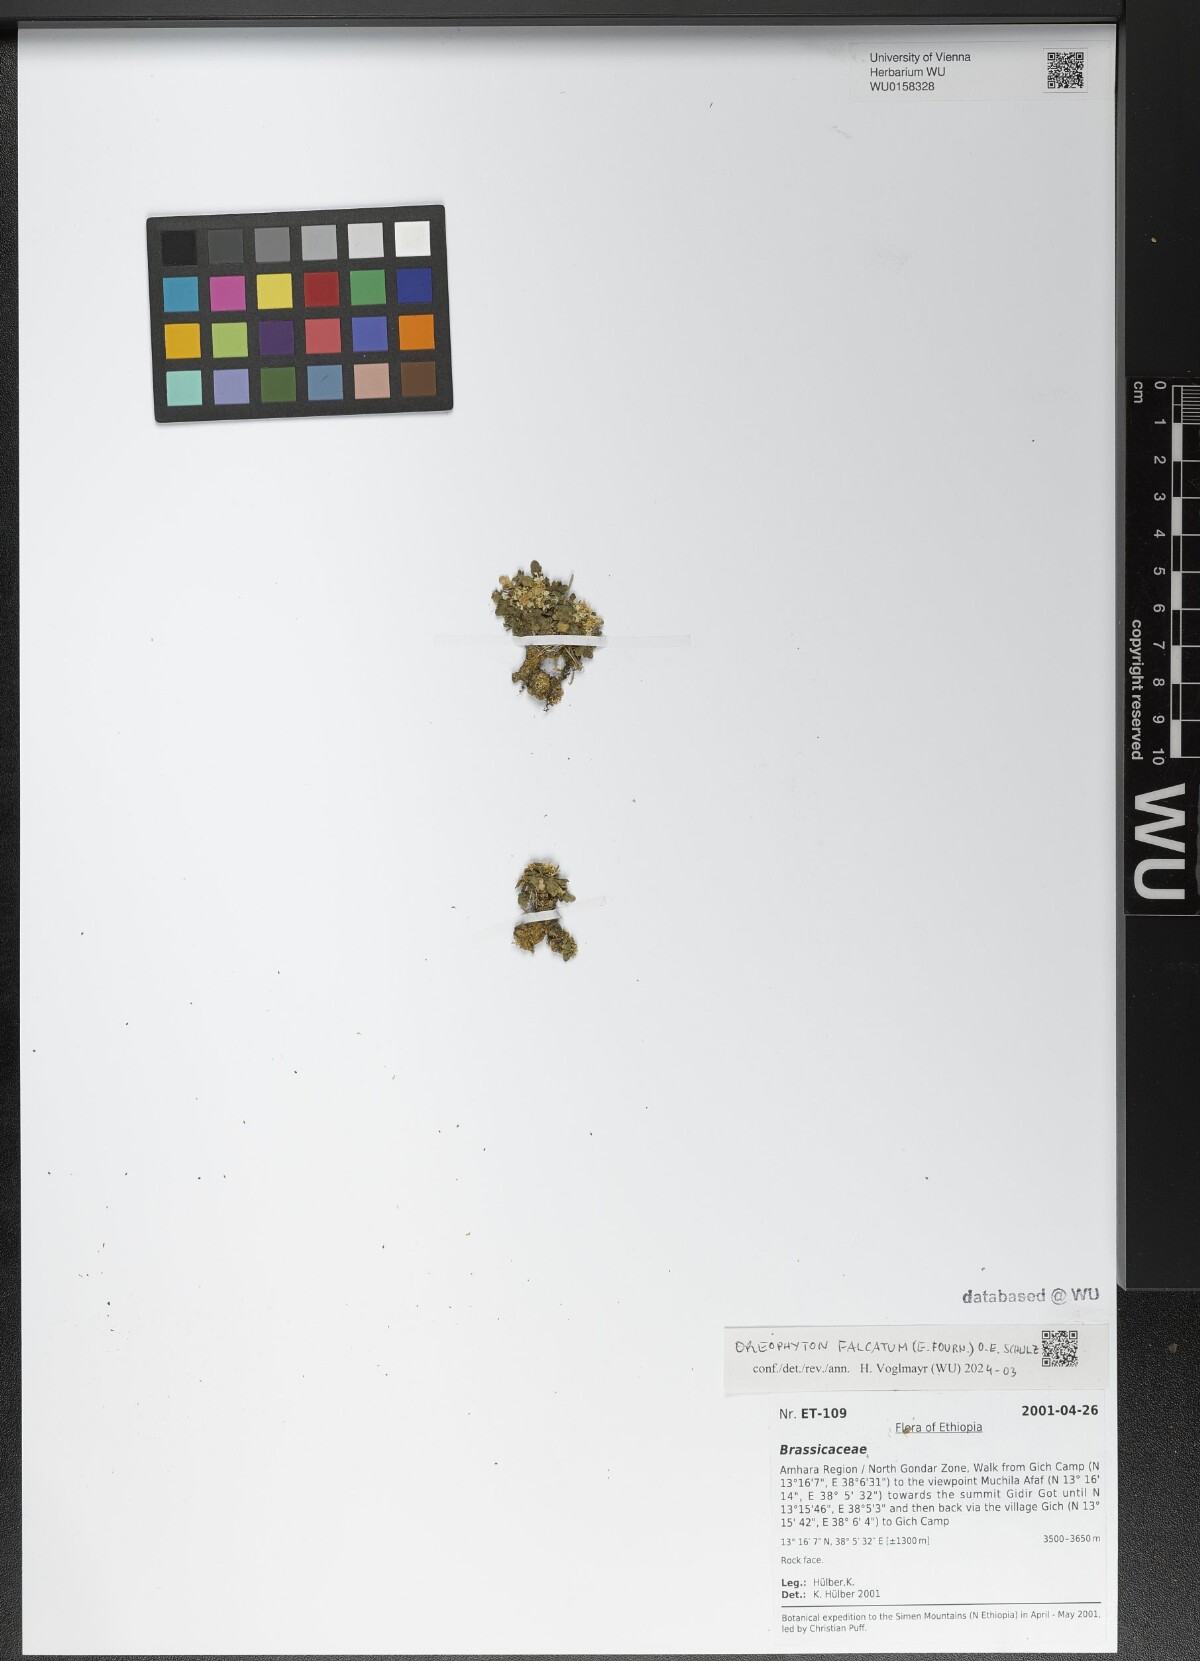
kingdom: Plantae
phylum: Tracheophyta
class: Magnoliopsida
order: Brassicales
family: Brassicaceae
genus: Oreophyton
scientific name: Oreophyton falcatum
